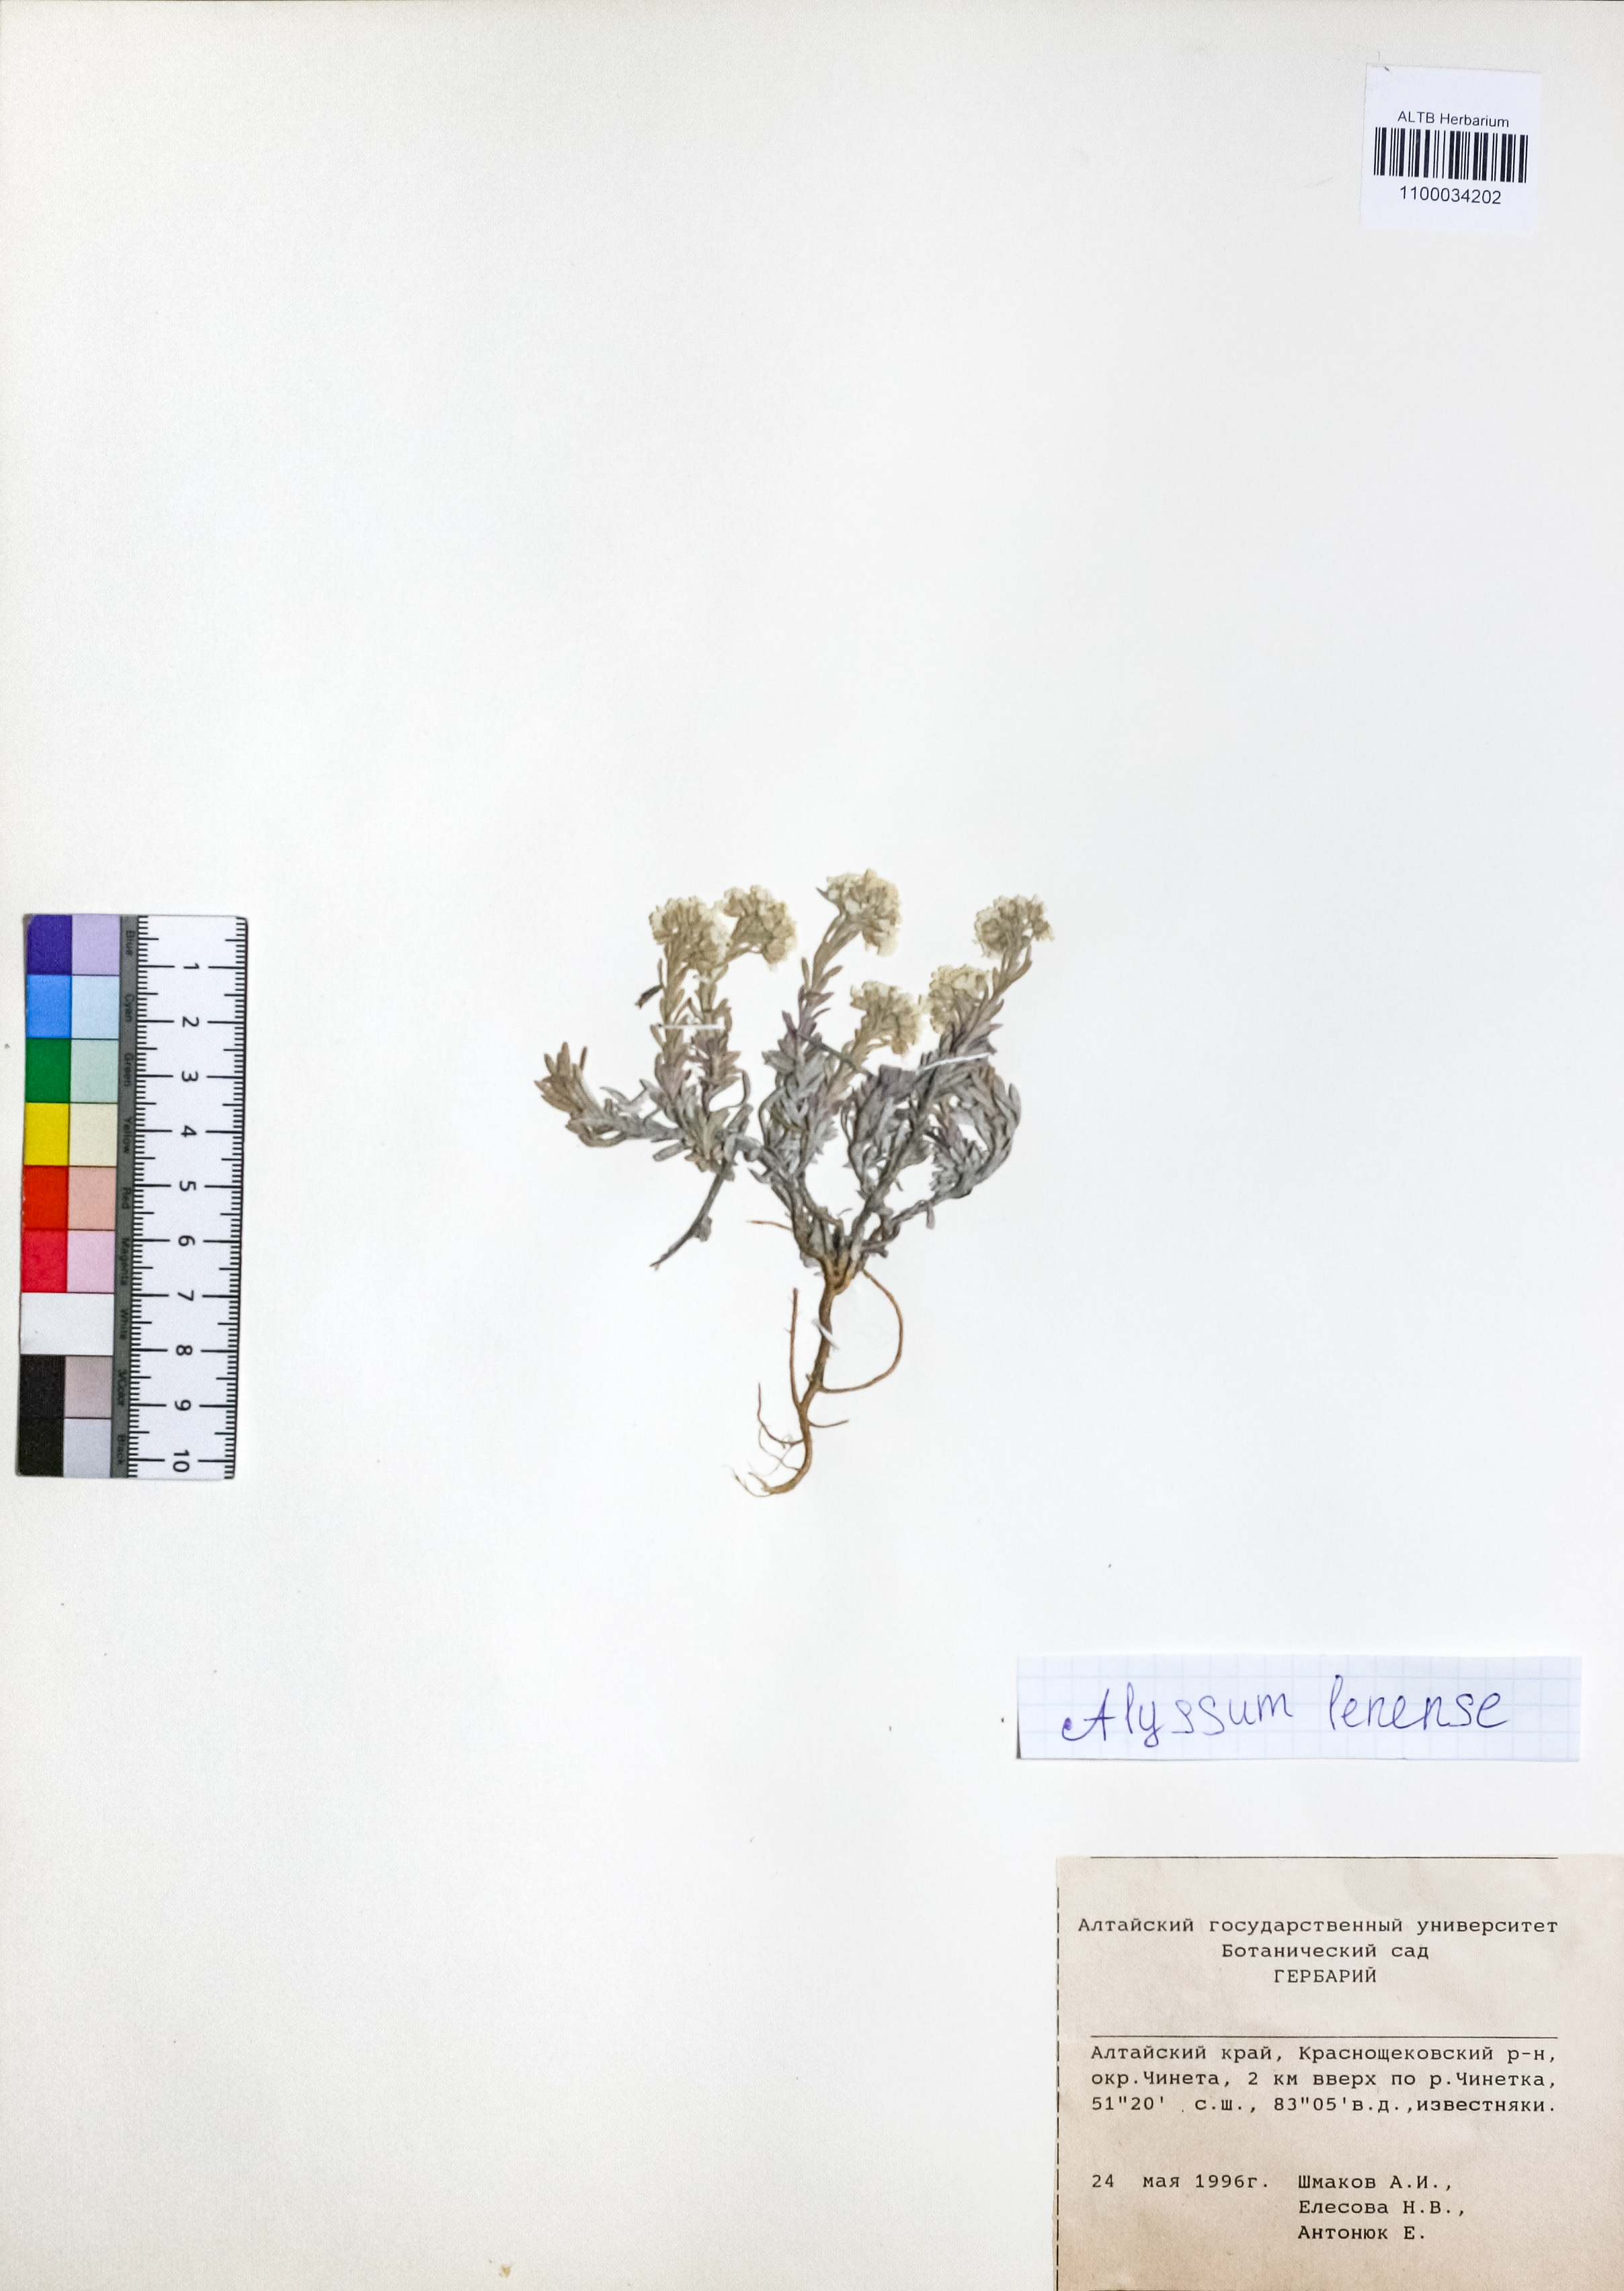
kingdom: Plantae
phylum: Tracheophyta
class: Magnoliopsida
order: Brassicales
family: Brassicaceae
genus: Alyssum
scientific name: Alyssum lenense
